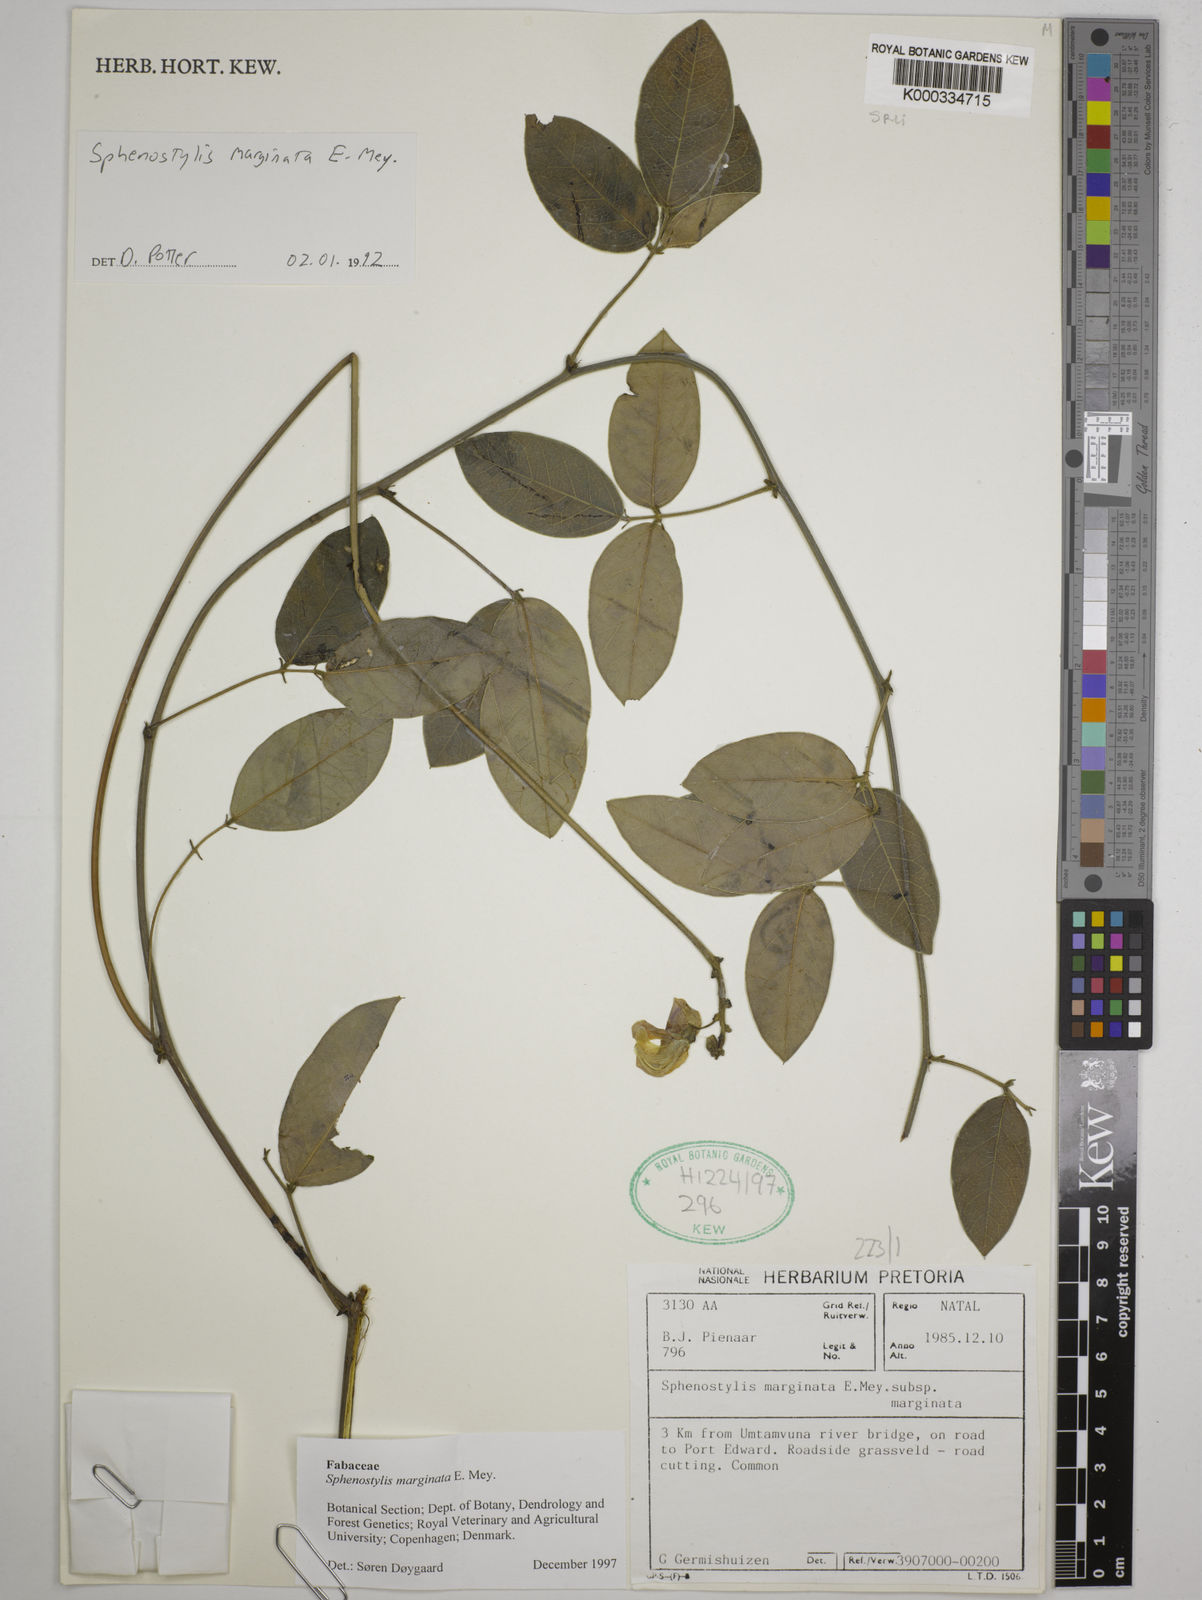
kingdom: Plantae
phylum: Tracheophyta
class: Magnoliopsida
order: Fabales
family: Fabaceae
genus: Sphenostylis
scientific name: Sphenostylis marginata
